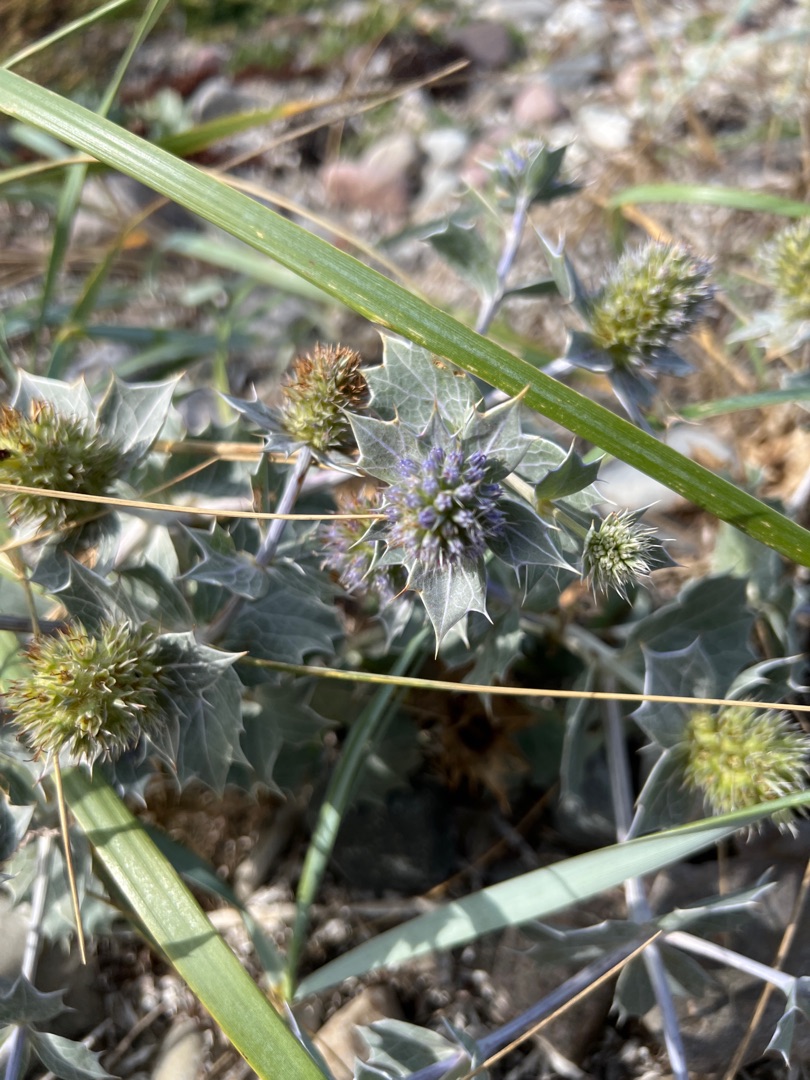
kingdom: Plantae
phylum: Tracheophyta
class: Magnoliopsida
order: Apiales
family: Apiaceae
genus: Eryngium
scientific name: Eryngium maritimum
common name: Strand-mandstro
